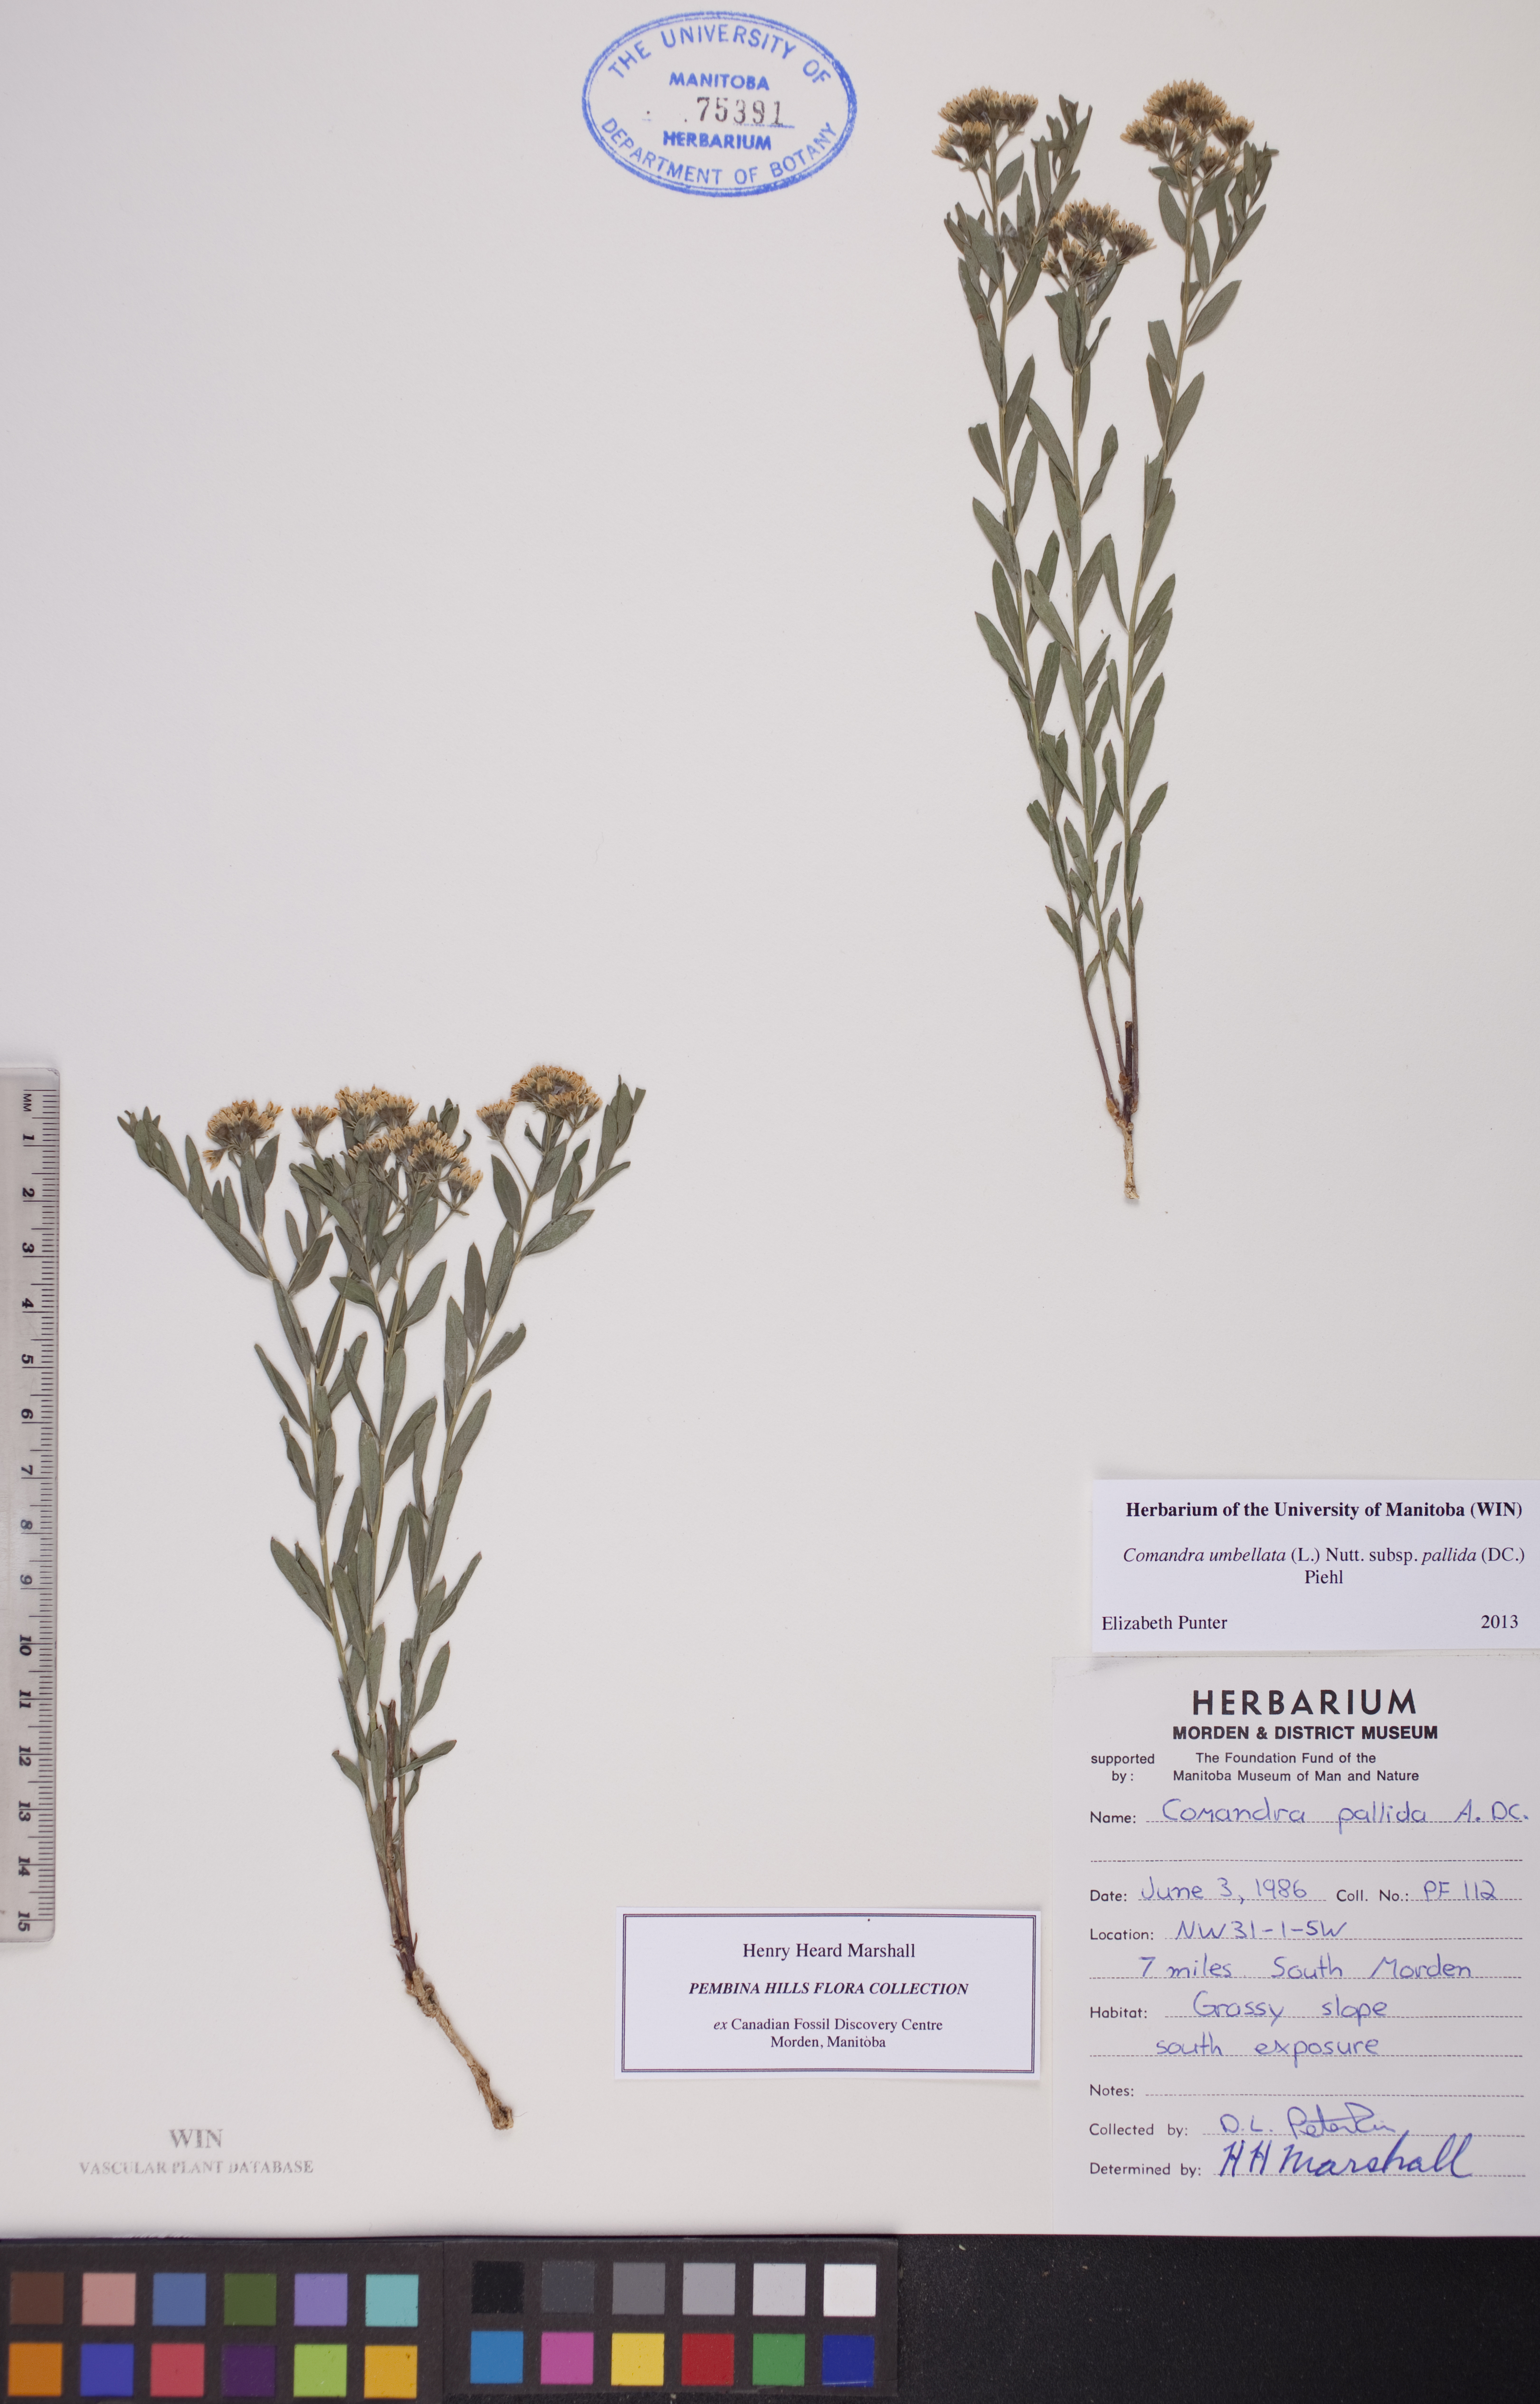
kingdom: Plantae
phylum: Tracheophyta
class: Magnoliopsida
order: Santalales
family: Comandraceae
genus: Comandra
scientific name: Comandra umbellata
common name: Bastard toadflax
